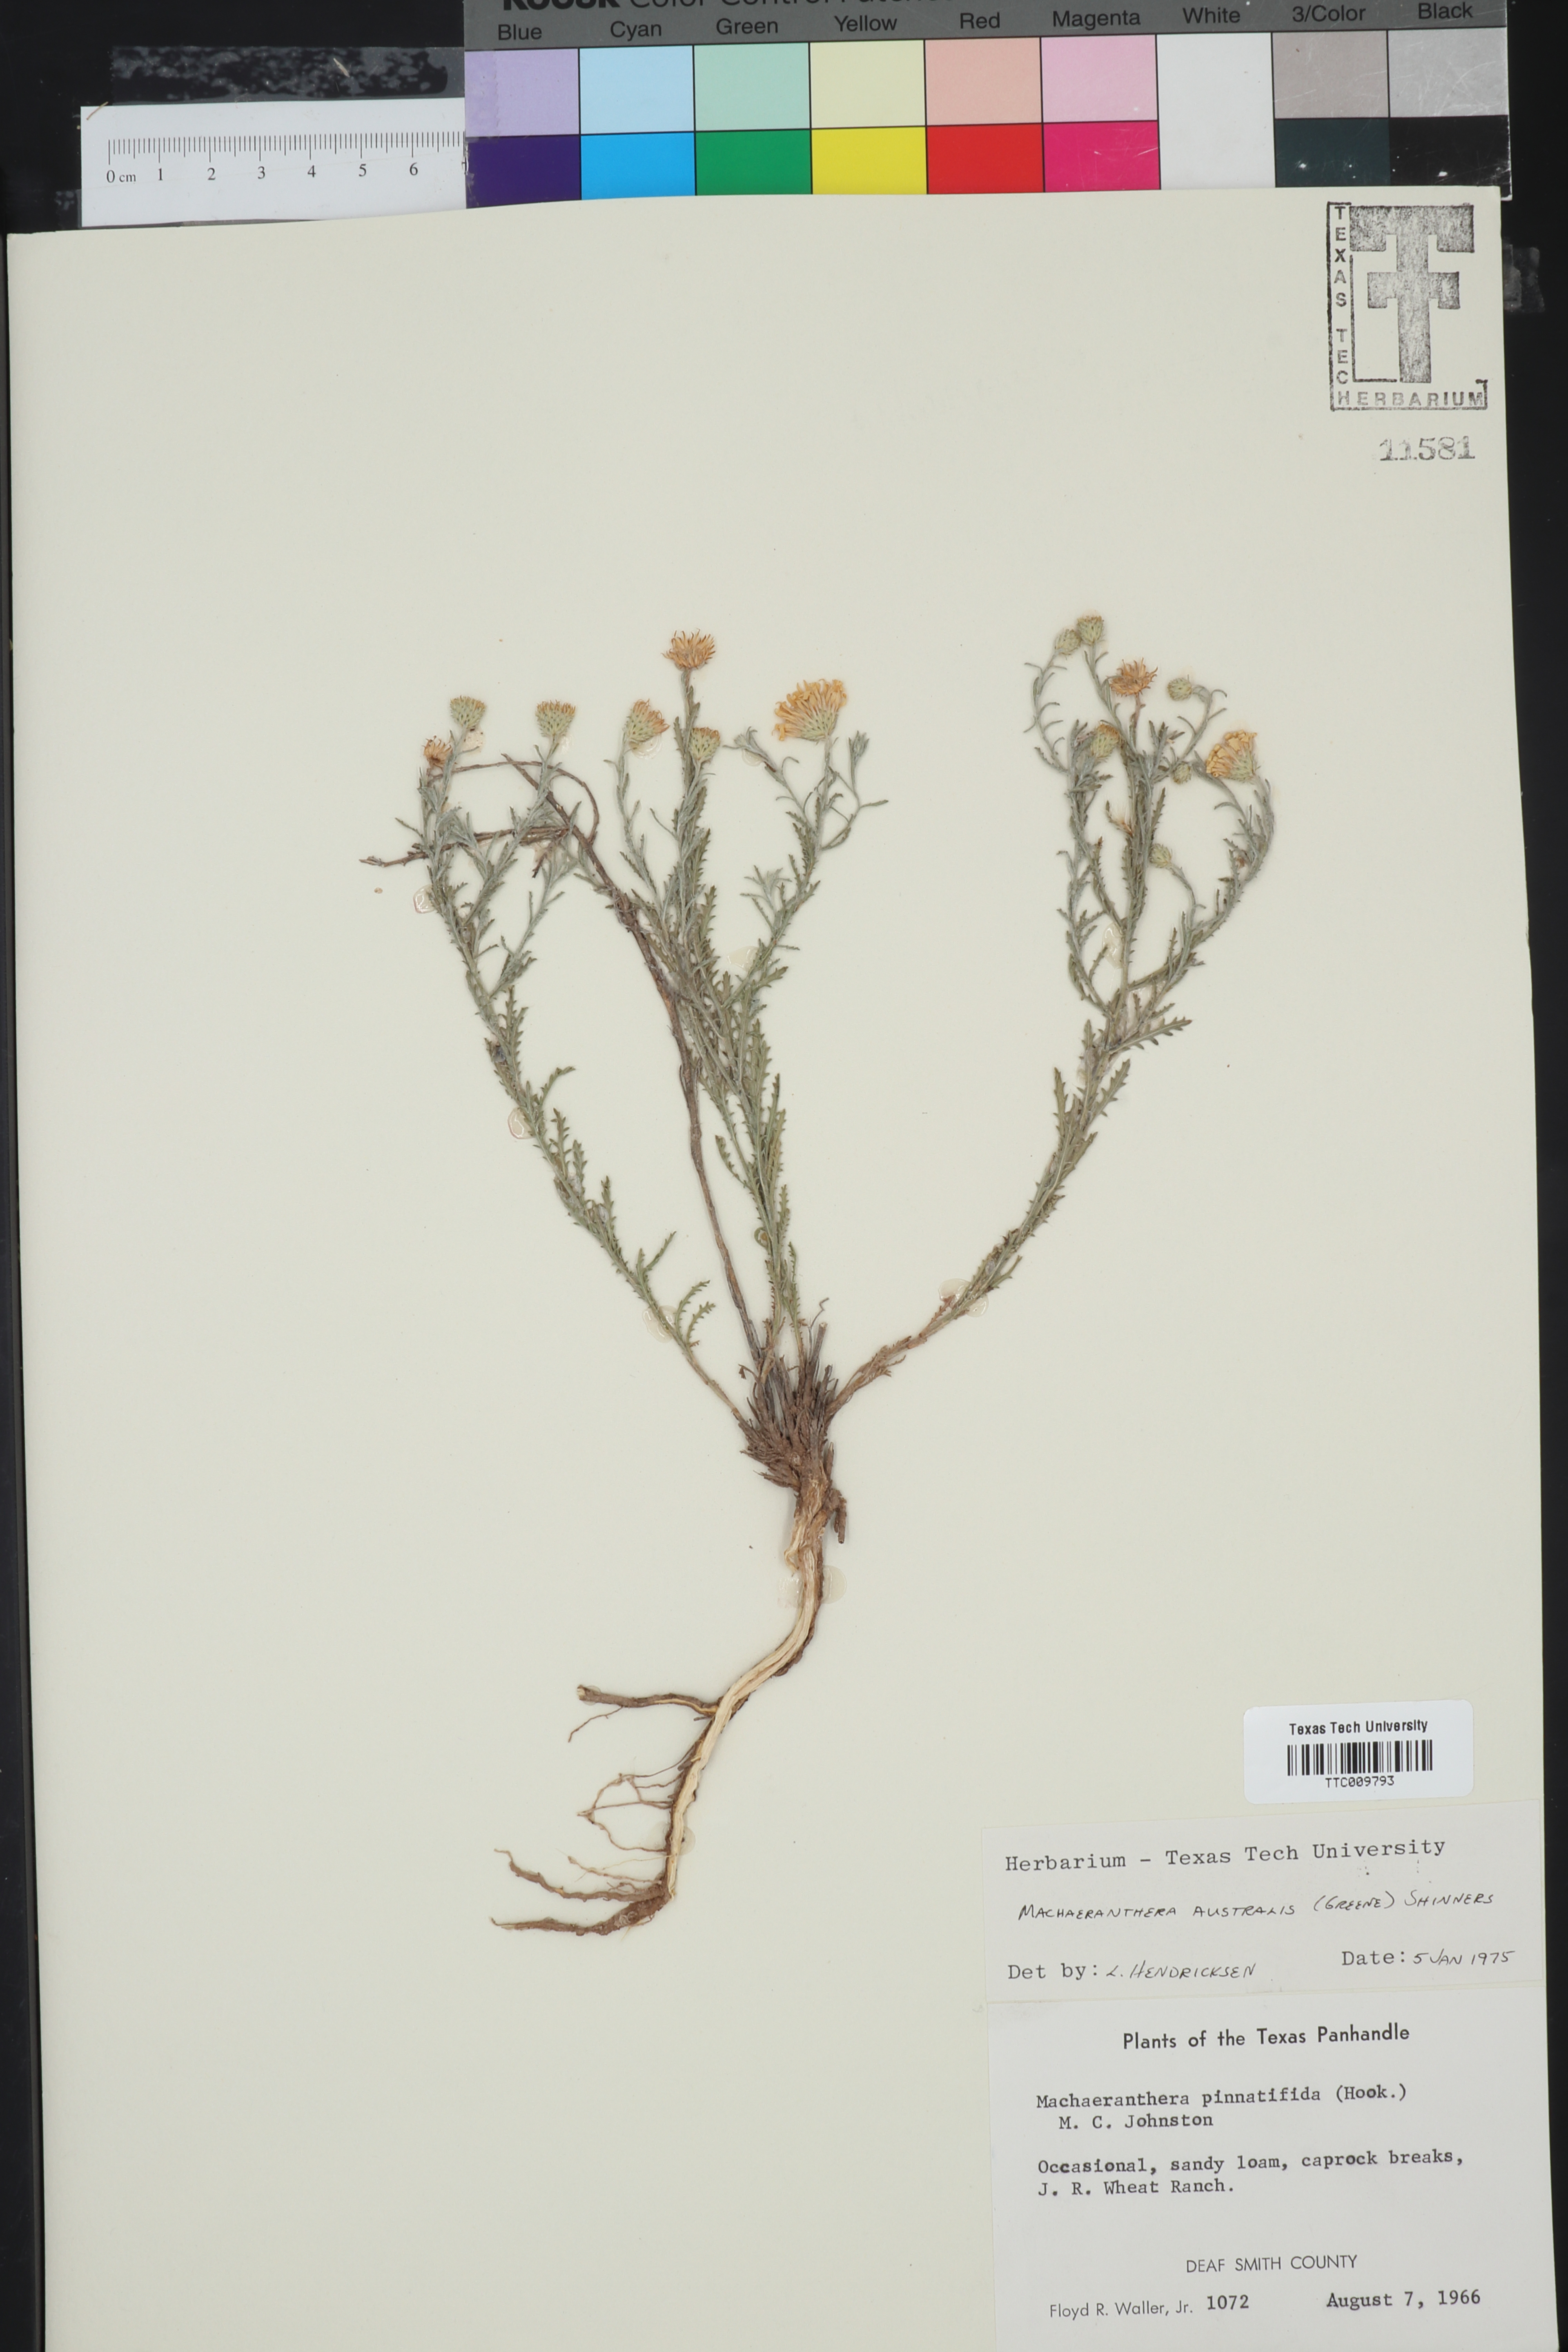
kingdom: Plantae
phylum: Tracheophyta
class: Magnoliopsida
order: Asterales
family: Asteraceae
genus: Xanthisma
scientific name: Xanthisma spinulosum
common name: Spiny goldenweed
